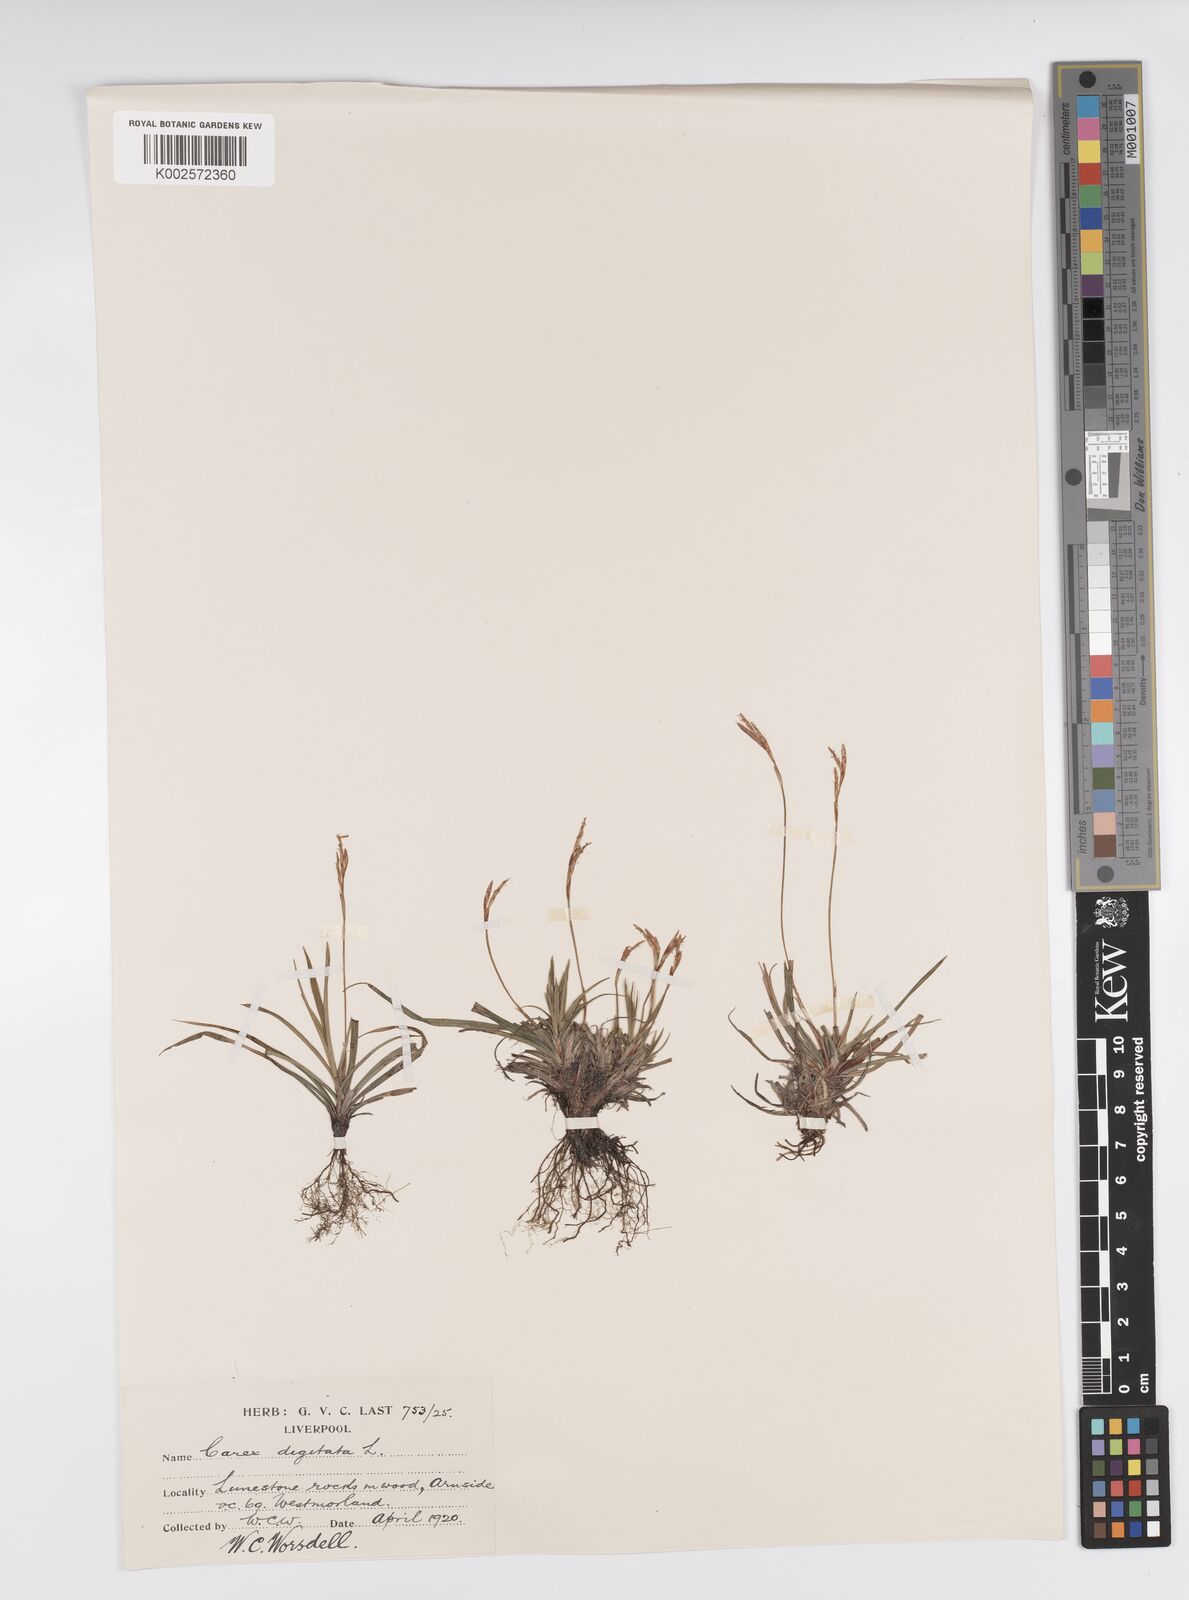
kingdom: Plantae
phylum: Tracheophyta
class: Liliopsida
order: Poales
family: Cyperaceae
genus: Carex
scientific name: Carex digitata
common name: Fingered sedge
